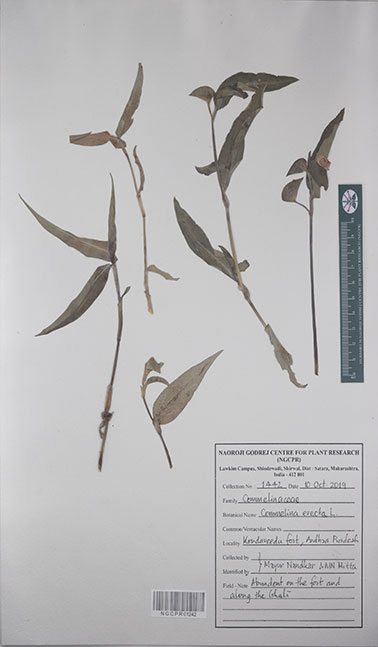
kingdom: Plantae
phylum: Tracheophyta
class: Liliopsida
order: Commelinales
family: Commelinaceae
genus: Commelina
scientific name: Commelina erecta
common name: Blousel blommetjie
